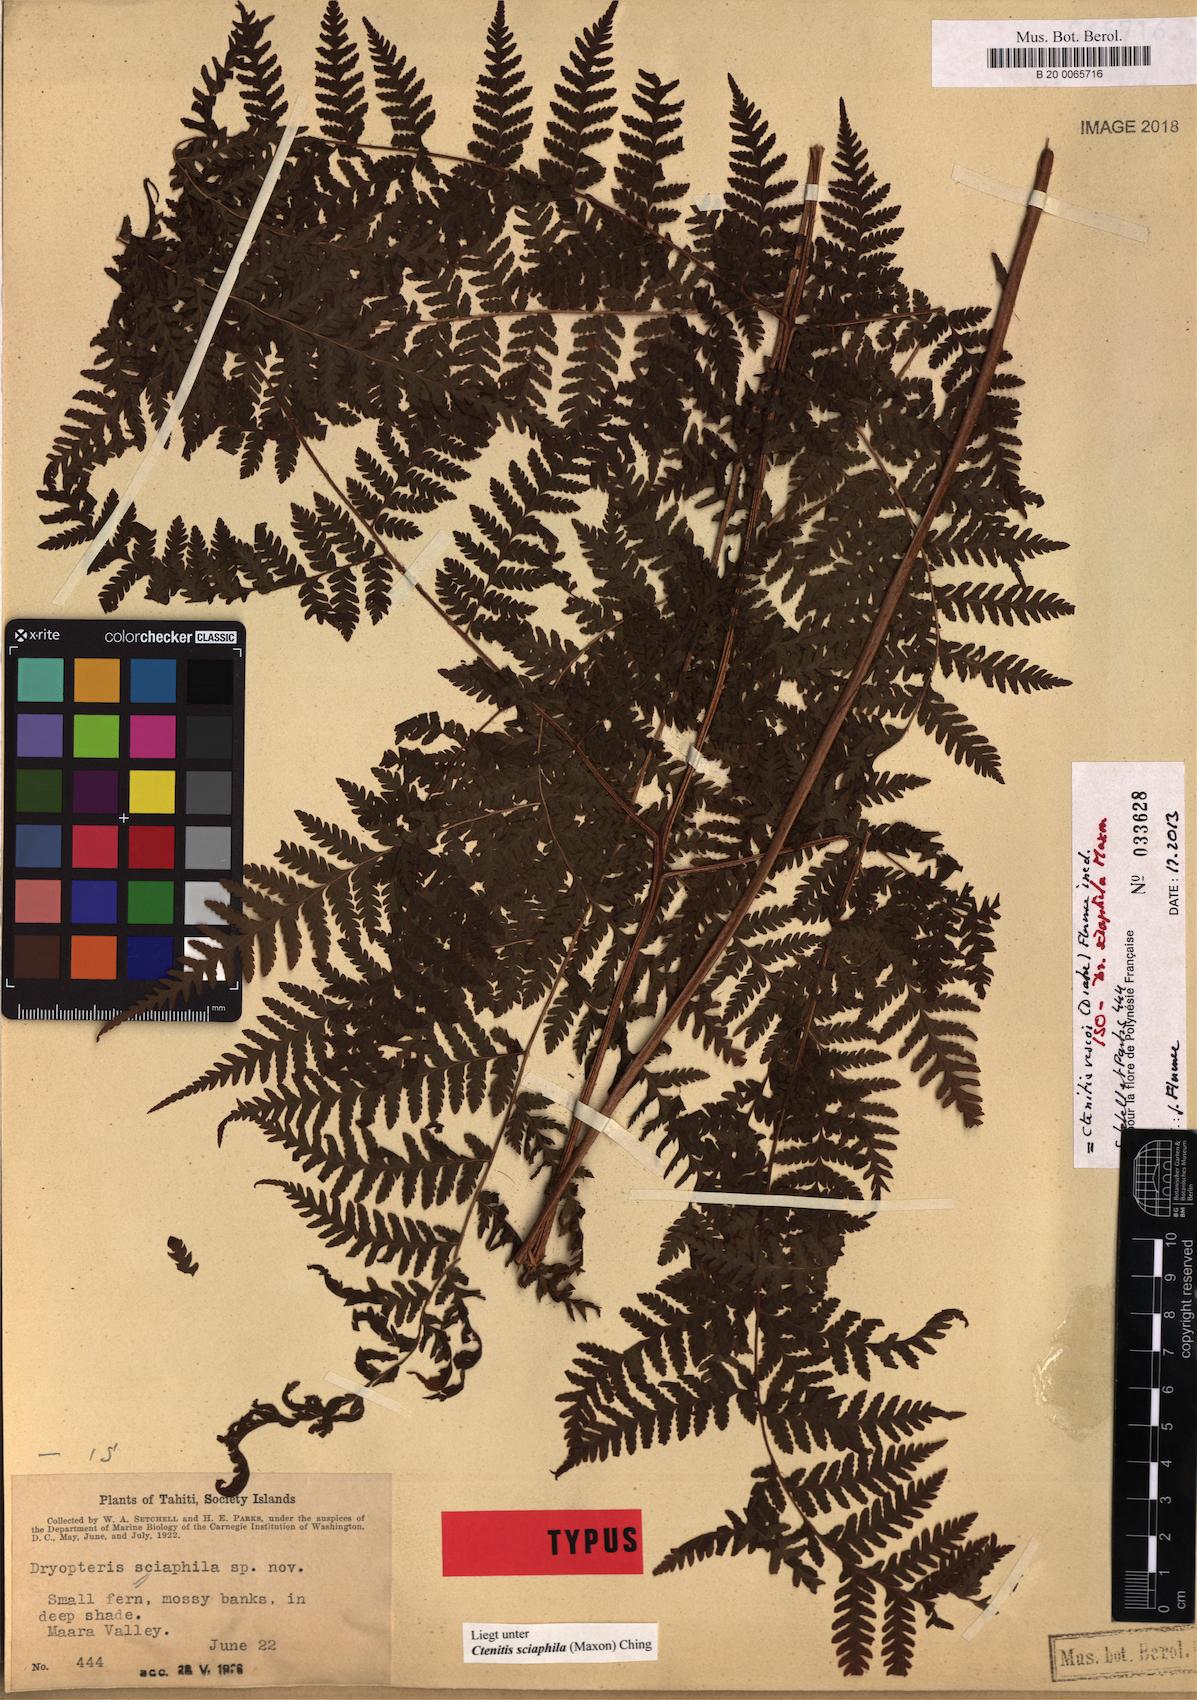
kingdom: Plantae
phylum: Tracheophyta
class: Polypodiopsida
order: Polypodiales
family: Dryopteridaceae
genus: Ctenitis
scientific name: Ctenitis sciaphila
